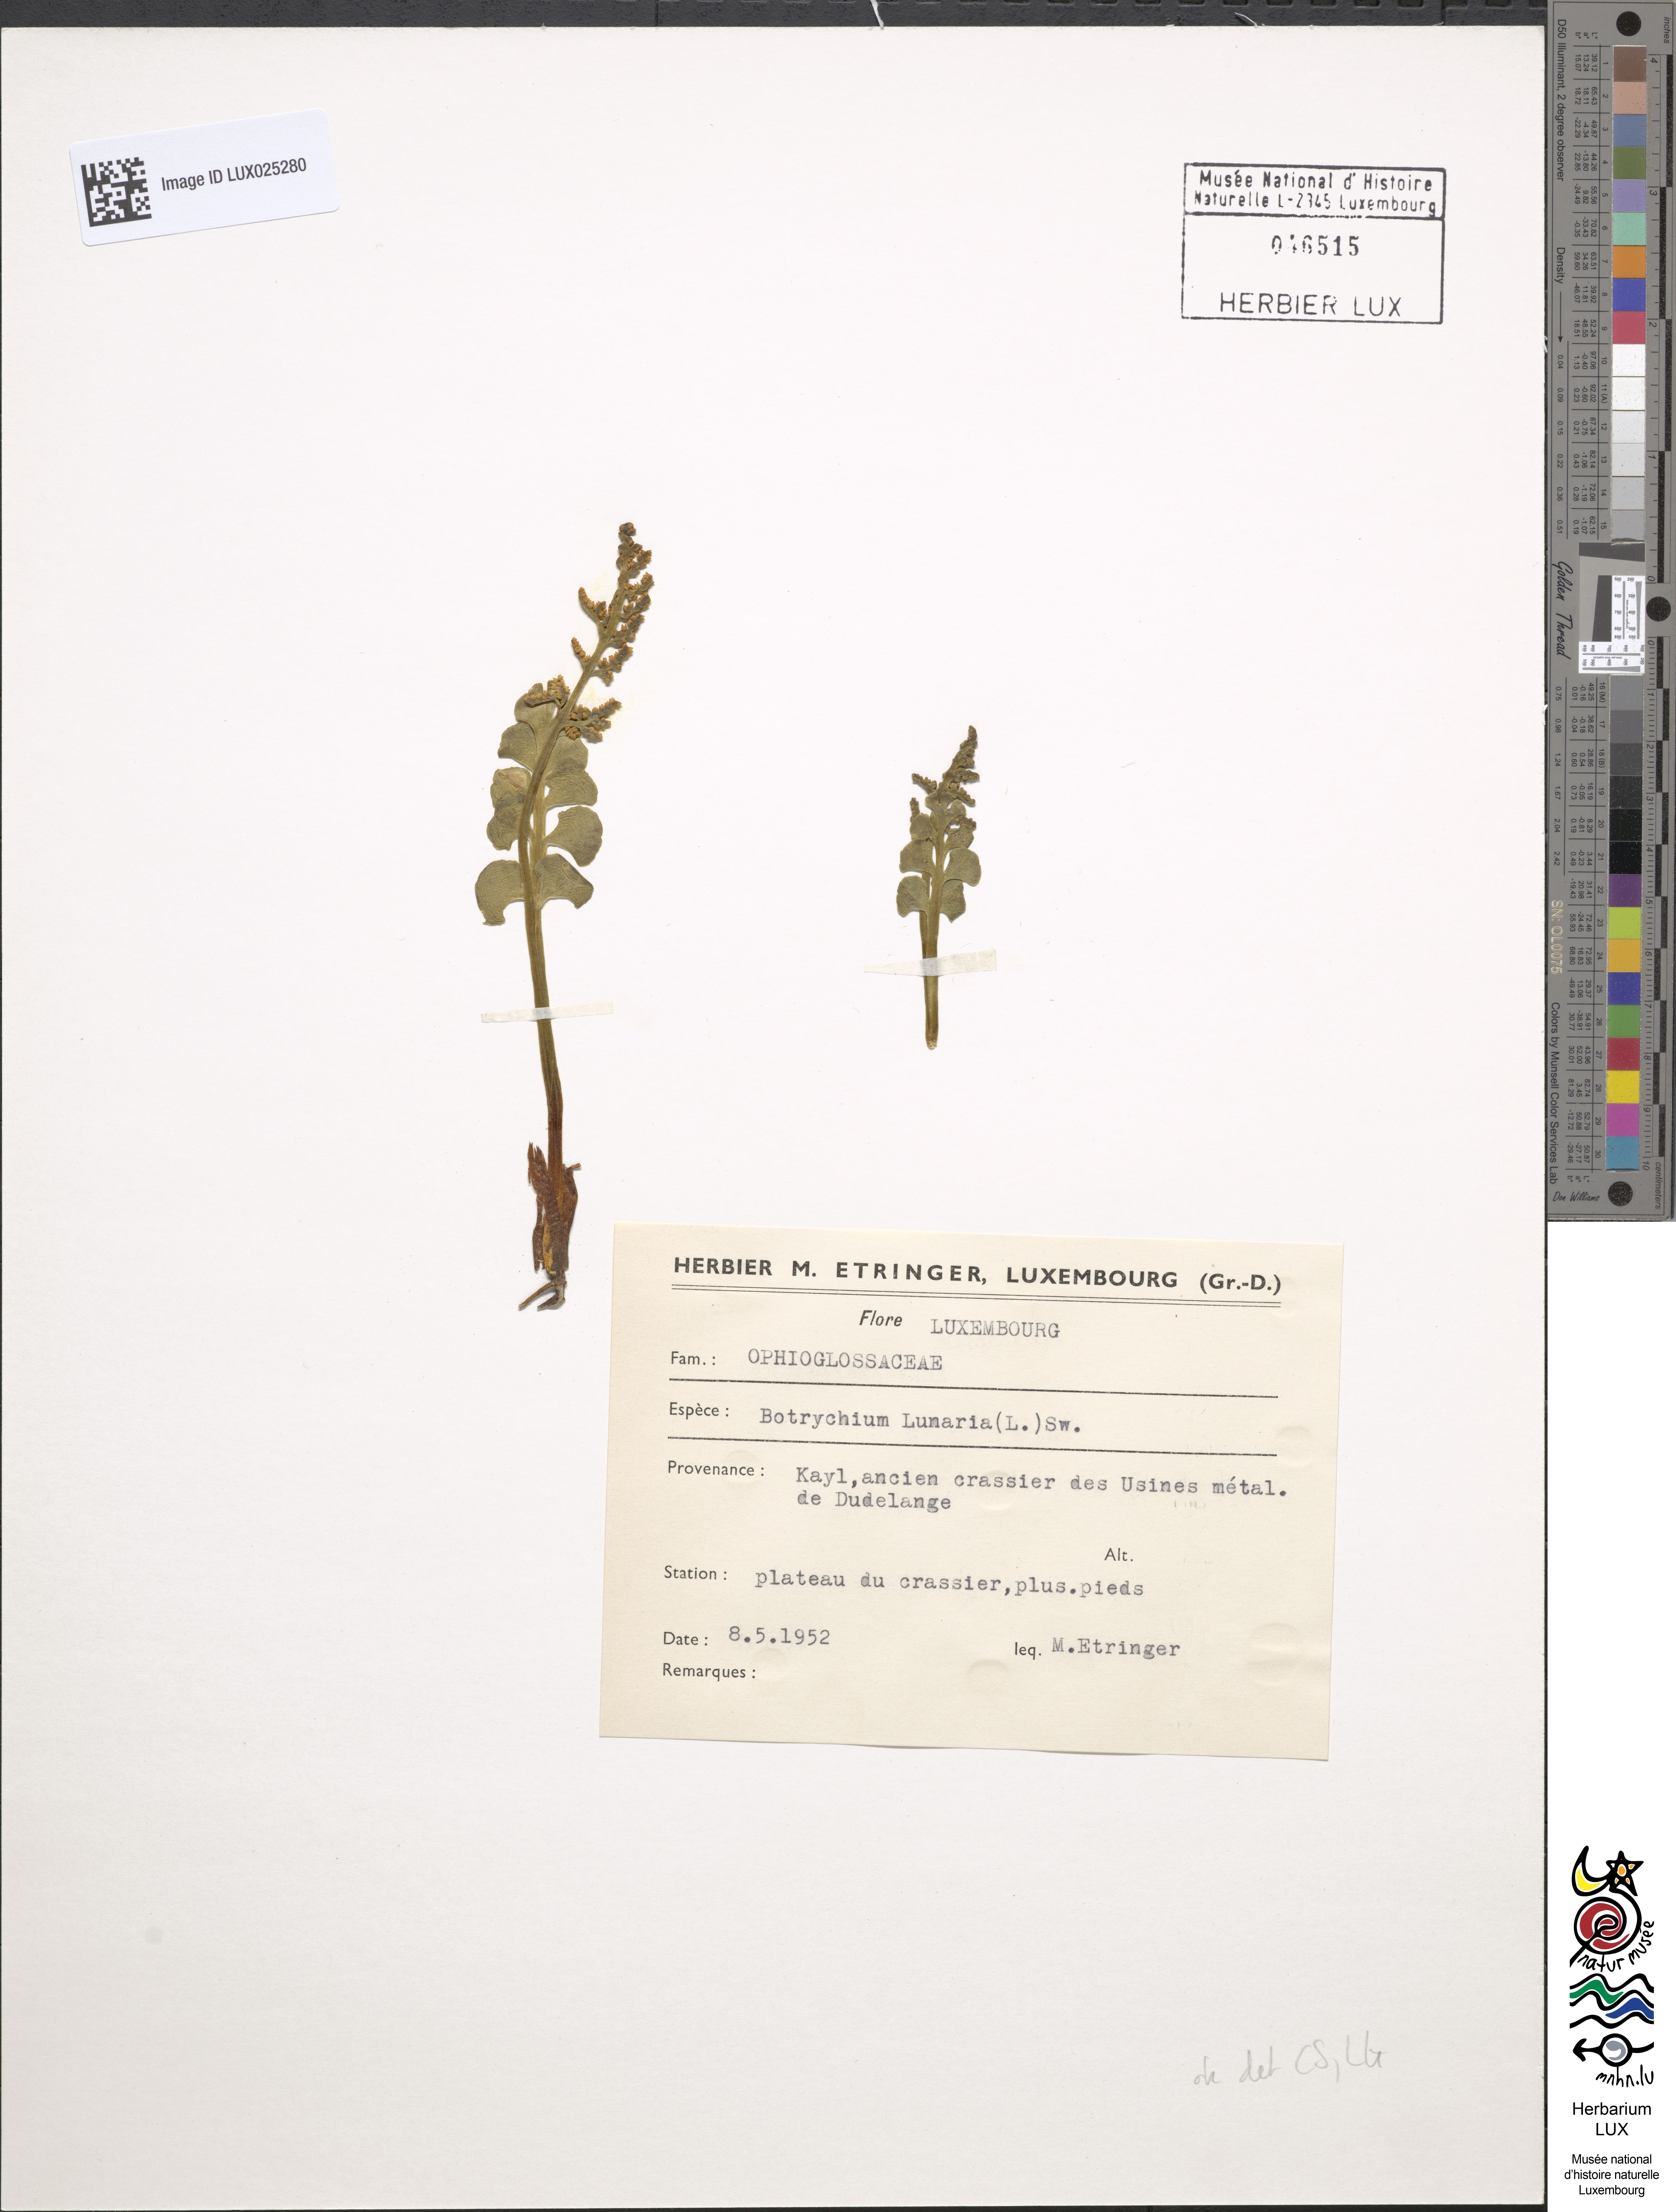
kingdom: Plantae
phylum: Tracheophyta
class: Polypodiopsida
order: Ophioglossales
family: Ophioglossaceae
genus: Botrychium
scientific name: Botrychium lunaria
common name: Moonwort
